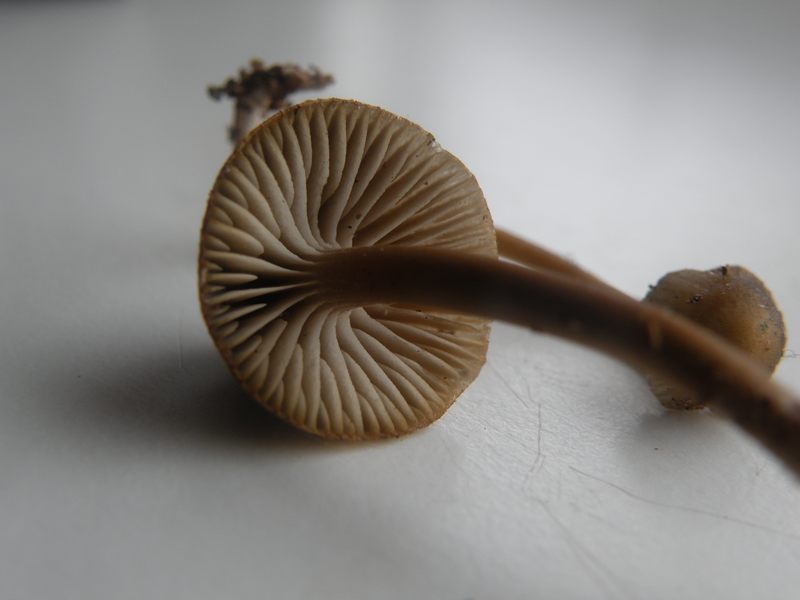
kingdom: Fungi
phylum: Basidiomycota
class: Agaricomycetes
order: Agaricales
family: Mycenaceae
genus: Mycena
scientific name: Mycena tintinnabulum
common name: vinter-huesvamp
